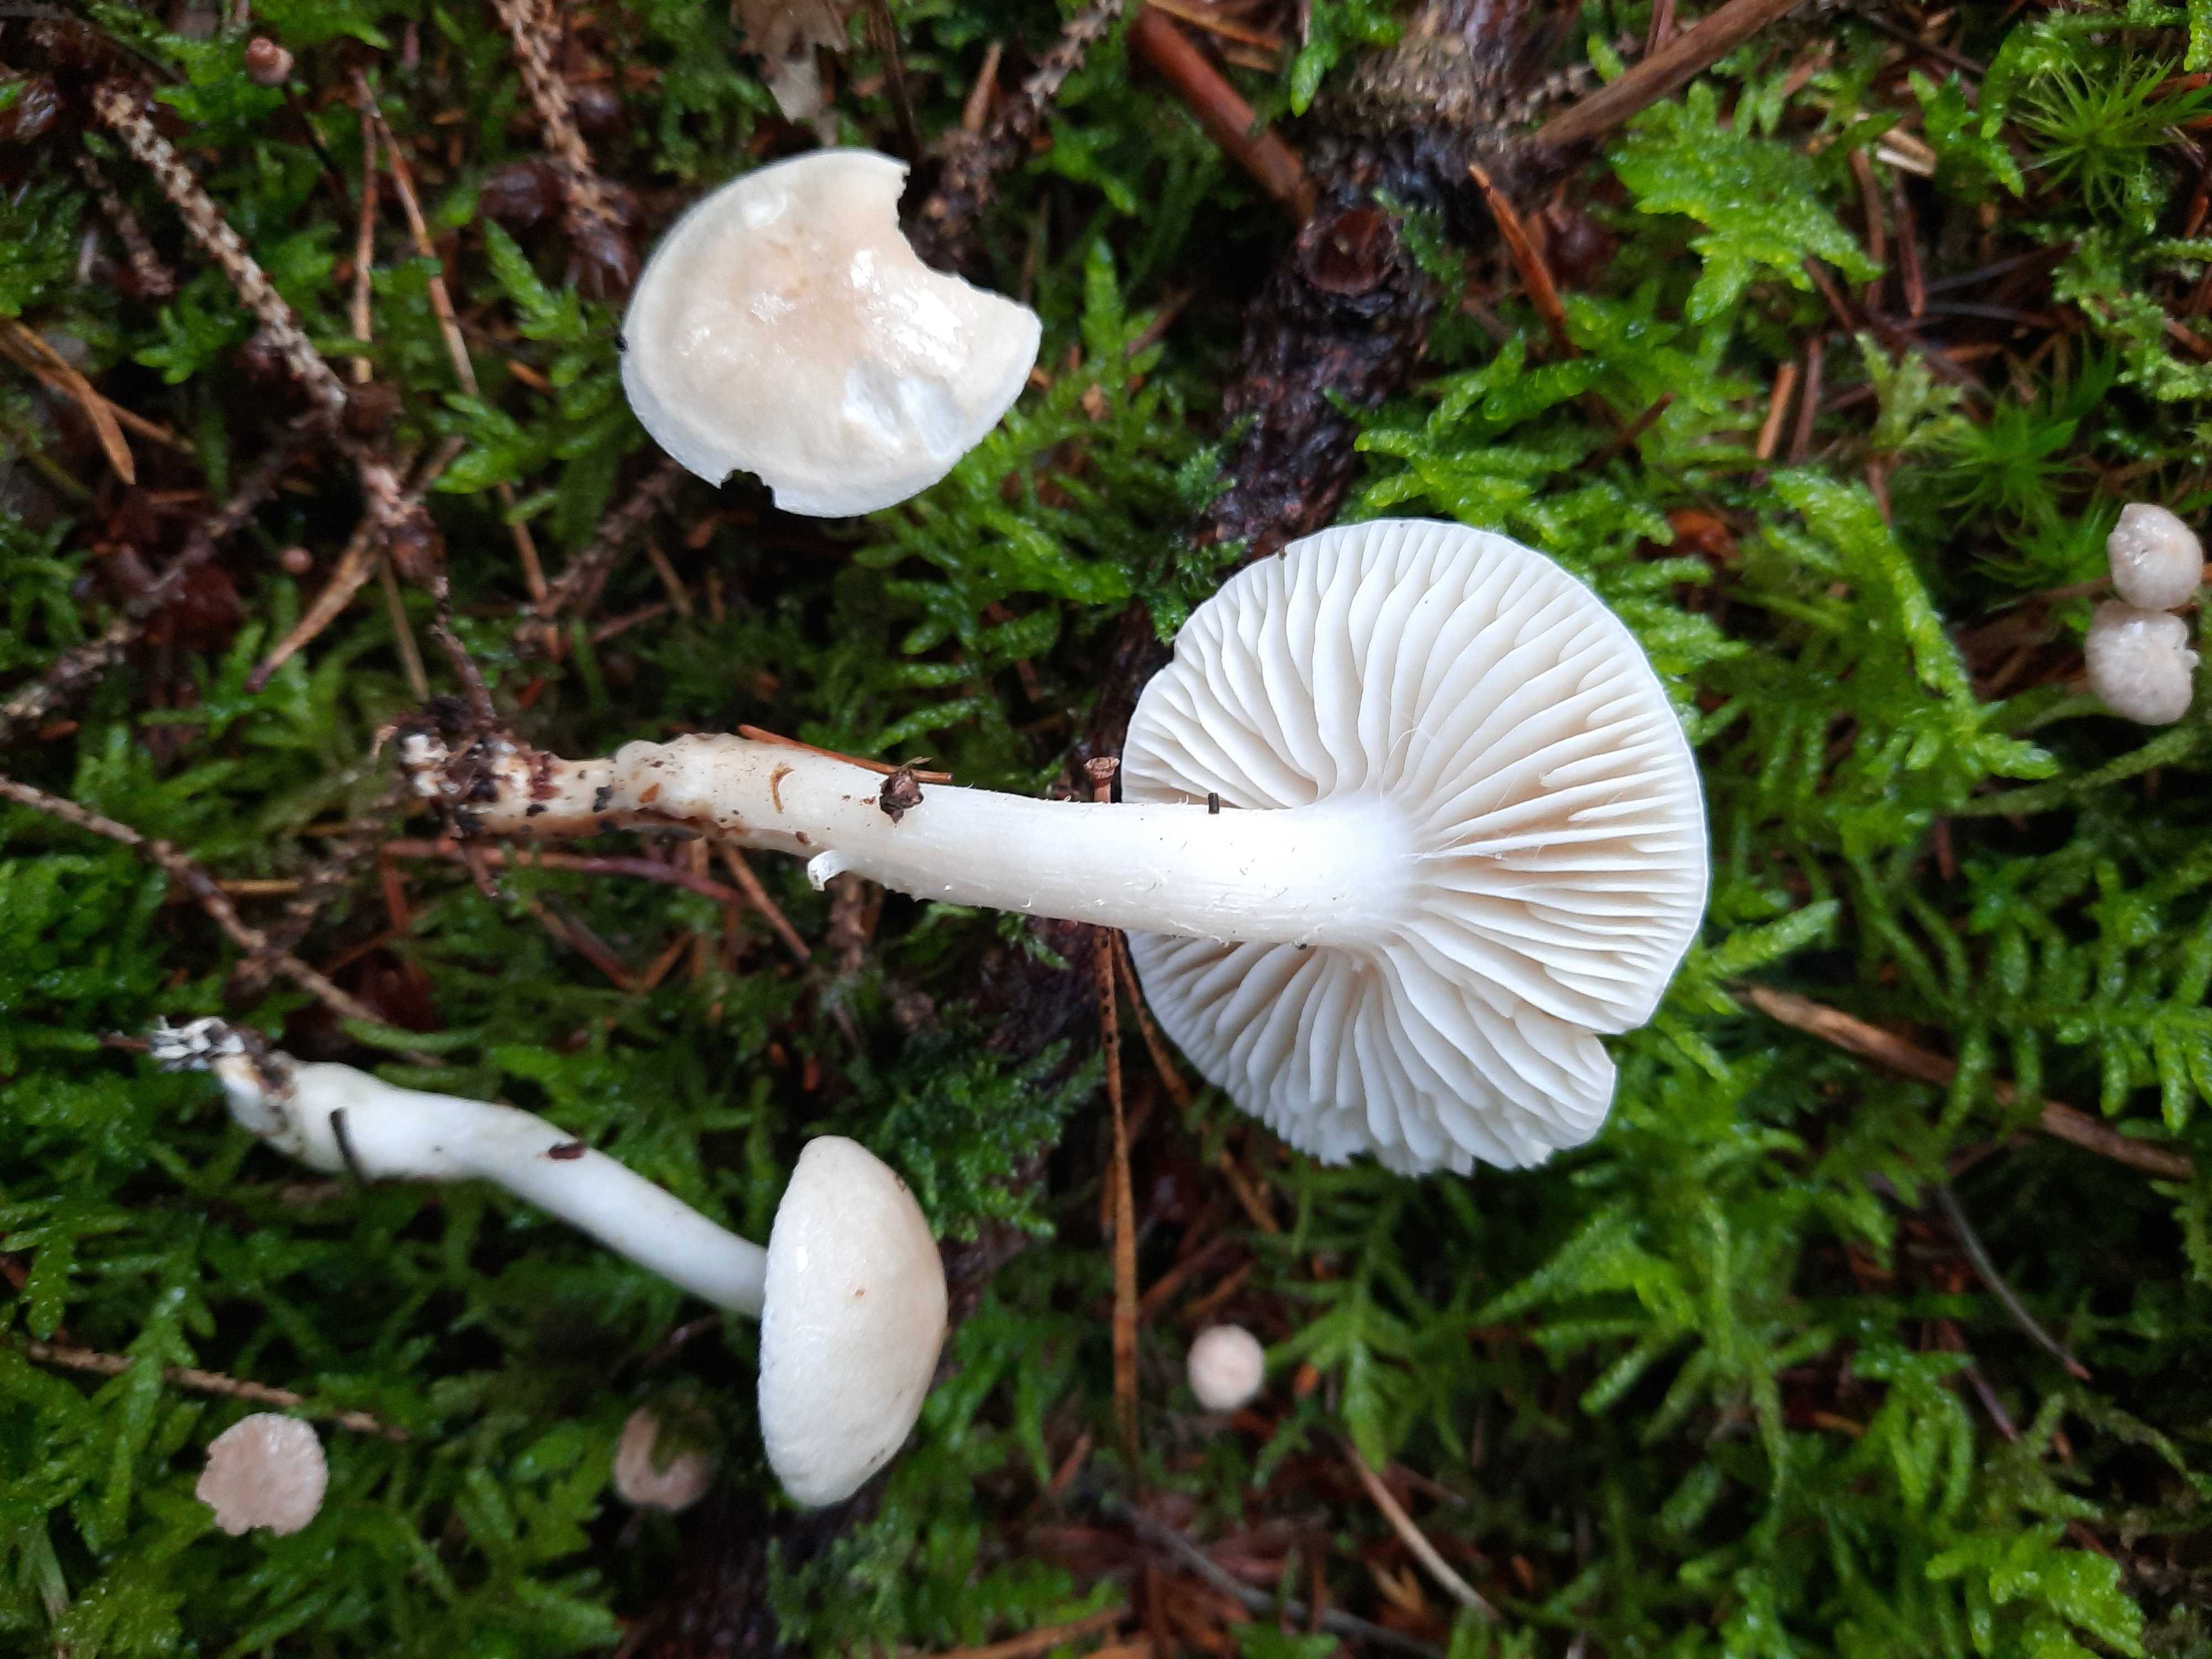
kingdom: Fungi
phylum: Basidiomycota
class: Agaricomycetes
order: Agaricales
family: Tricholomataceae
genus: Tricholoma
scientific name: Tricholoma inamoenum
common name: højstokket ridderhat
